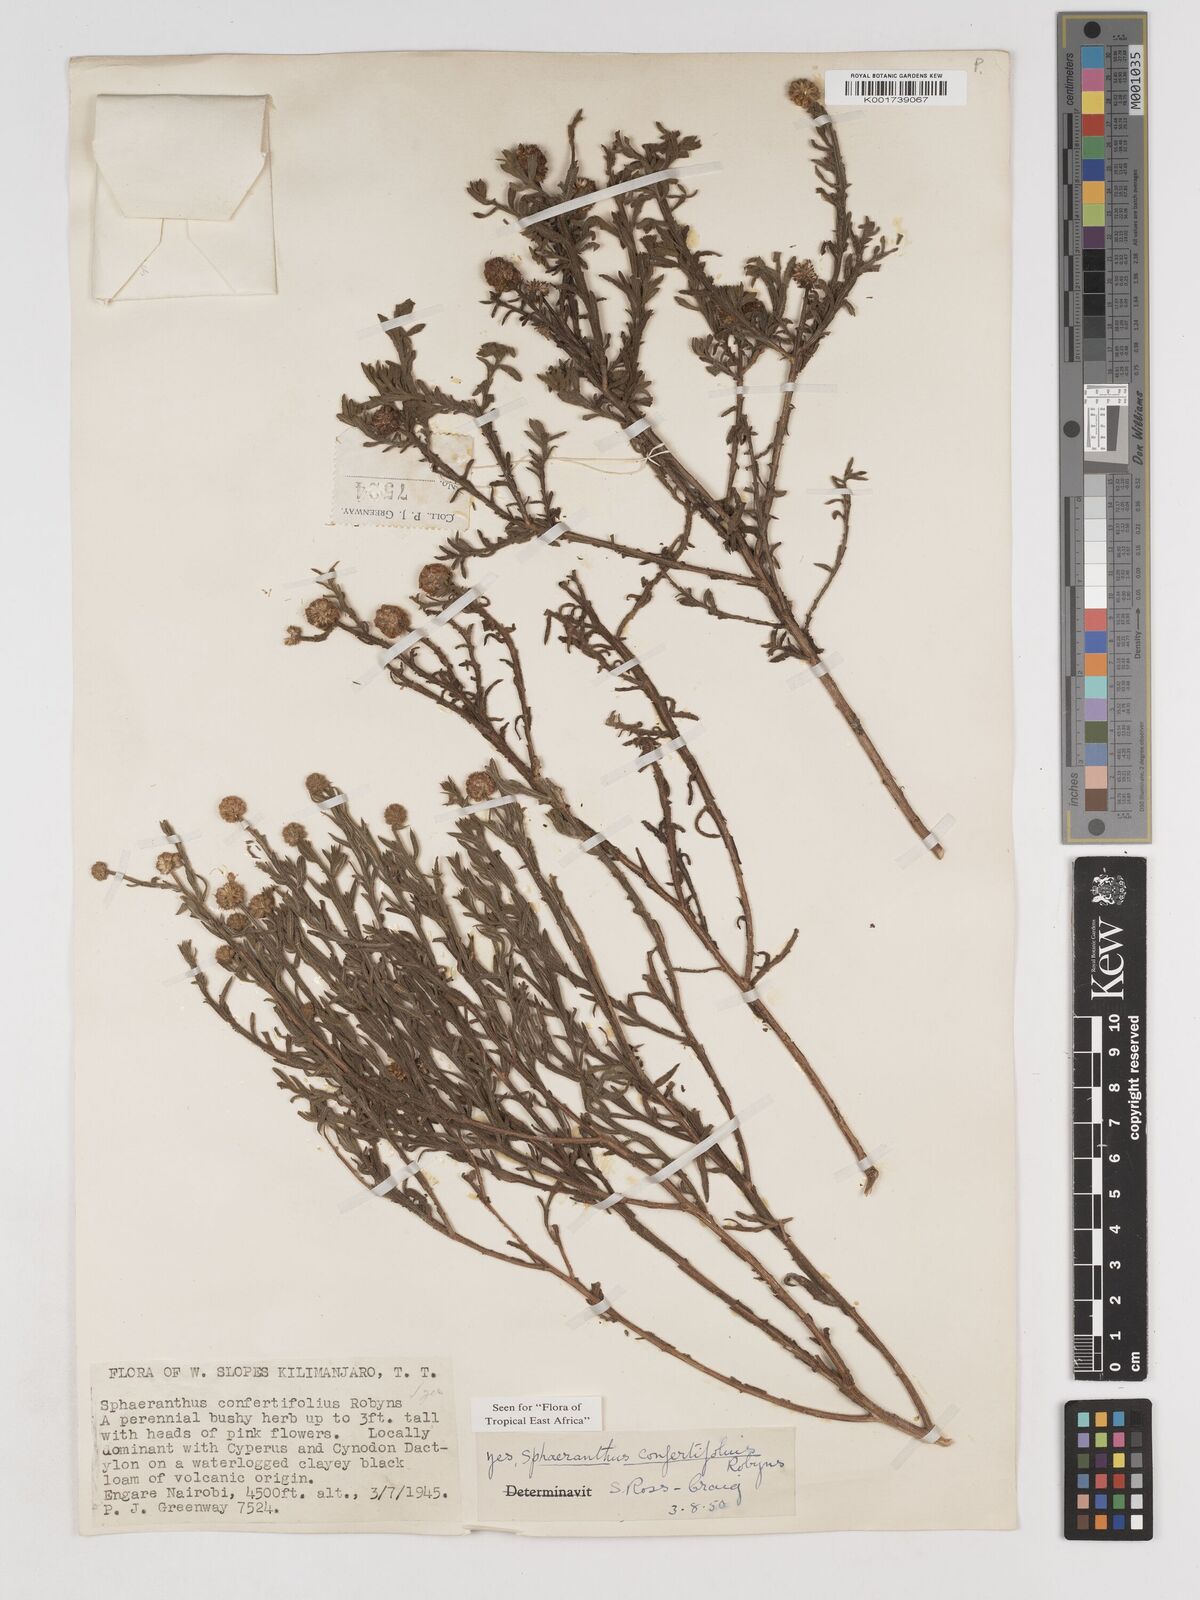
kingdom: Plantae
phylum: Tracheophyta
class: Magnoliopsida
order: Asterales
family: Asteraceae
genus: Sphaeranthus
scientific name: Sphaeranthus confertifolius
